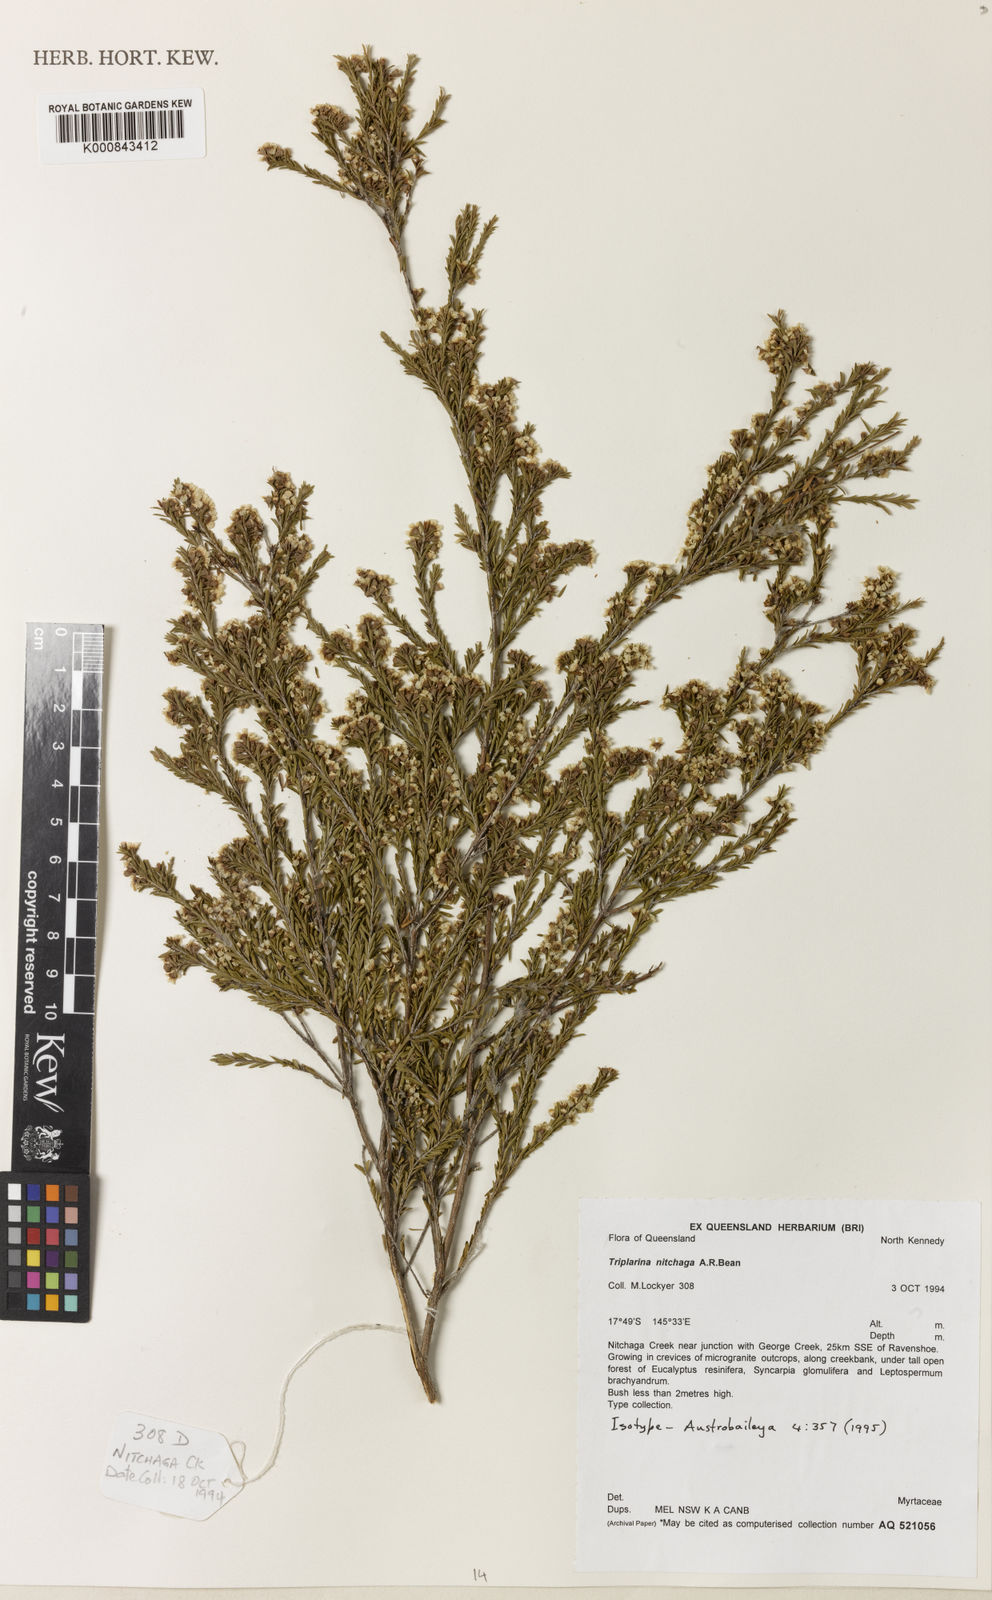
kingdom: Plantae
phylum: Tracheophyta
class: Magnoliopsida
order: Myrtales
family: Myrtaceae
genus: Triplarina
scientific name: Triplarina nitchaga
